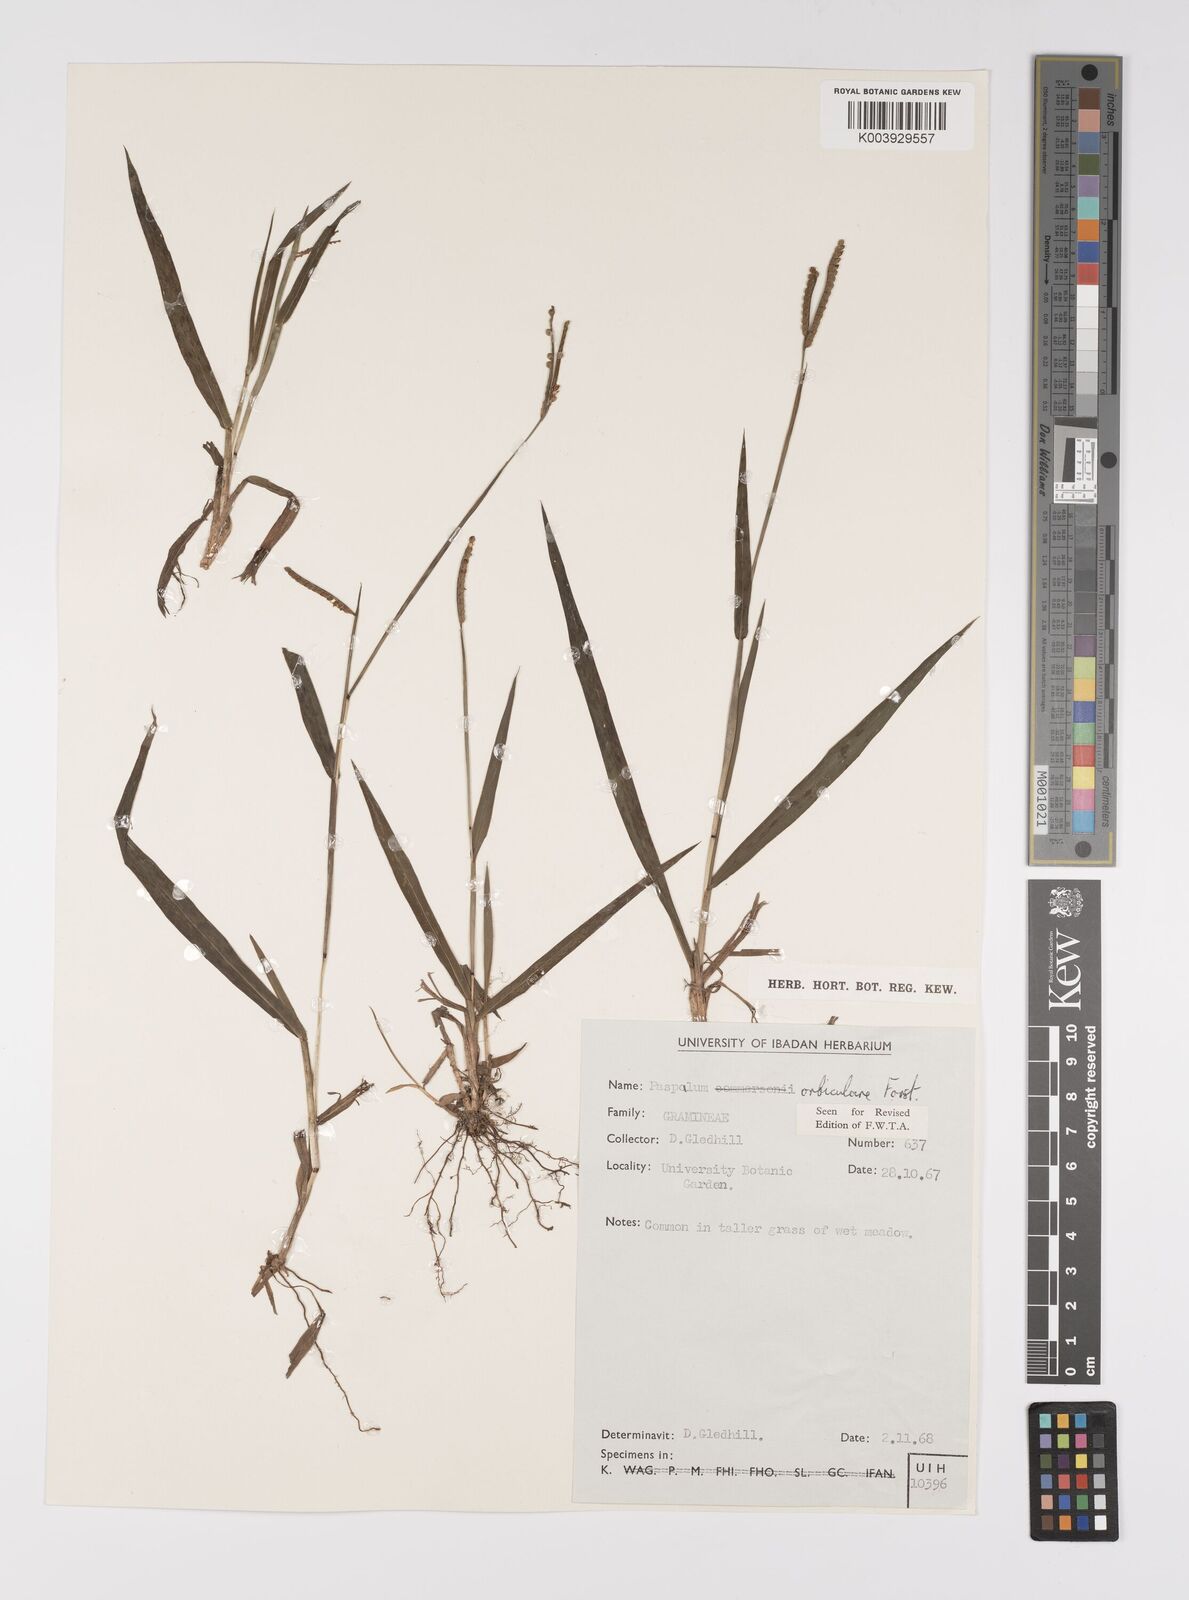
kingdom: Plantae
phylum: Tracheophyta
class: Liliopsida
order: Poales
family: Poaceae
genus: Paspalum
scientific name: Paspalum scrobiculatum
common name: Kodo millet
